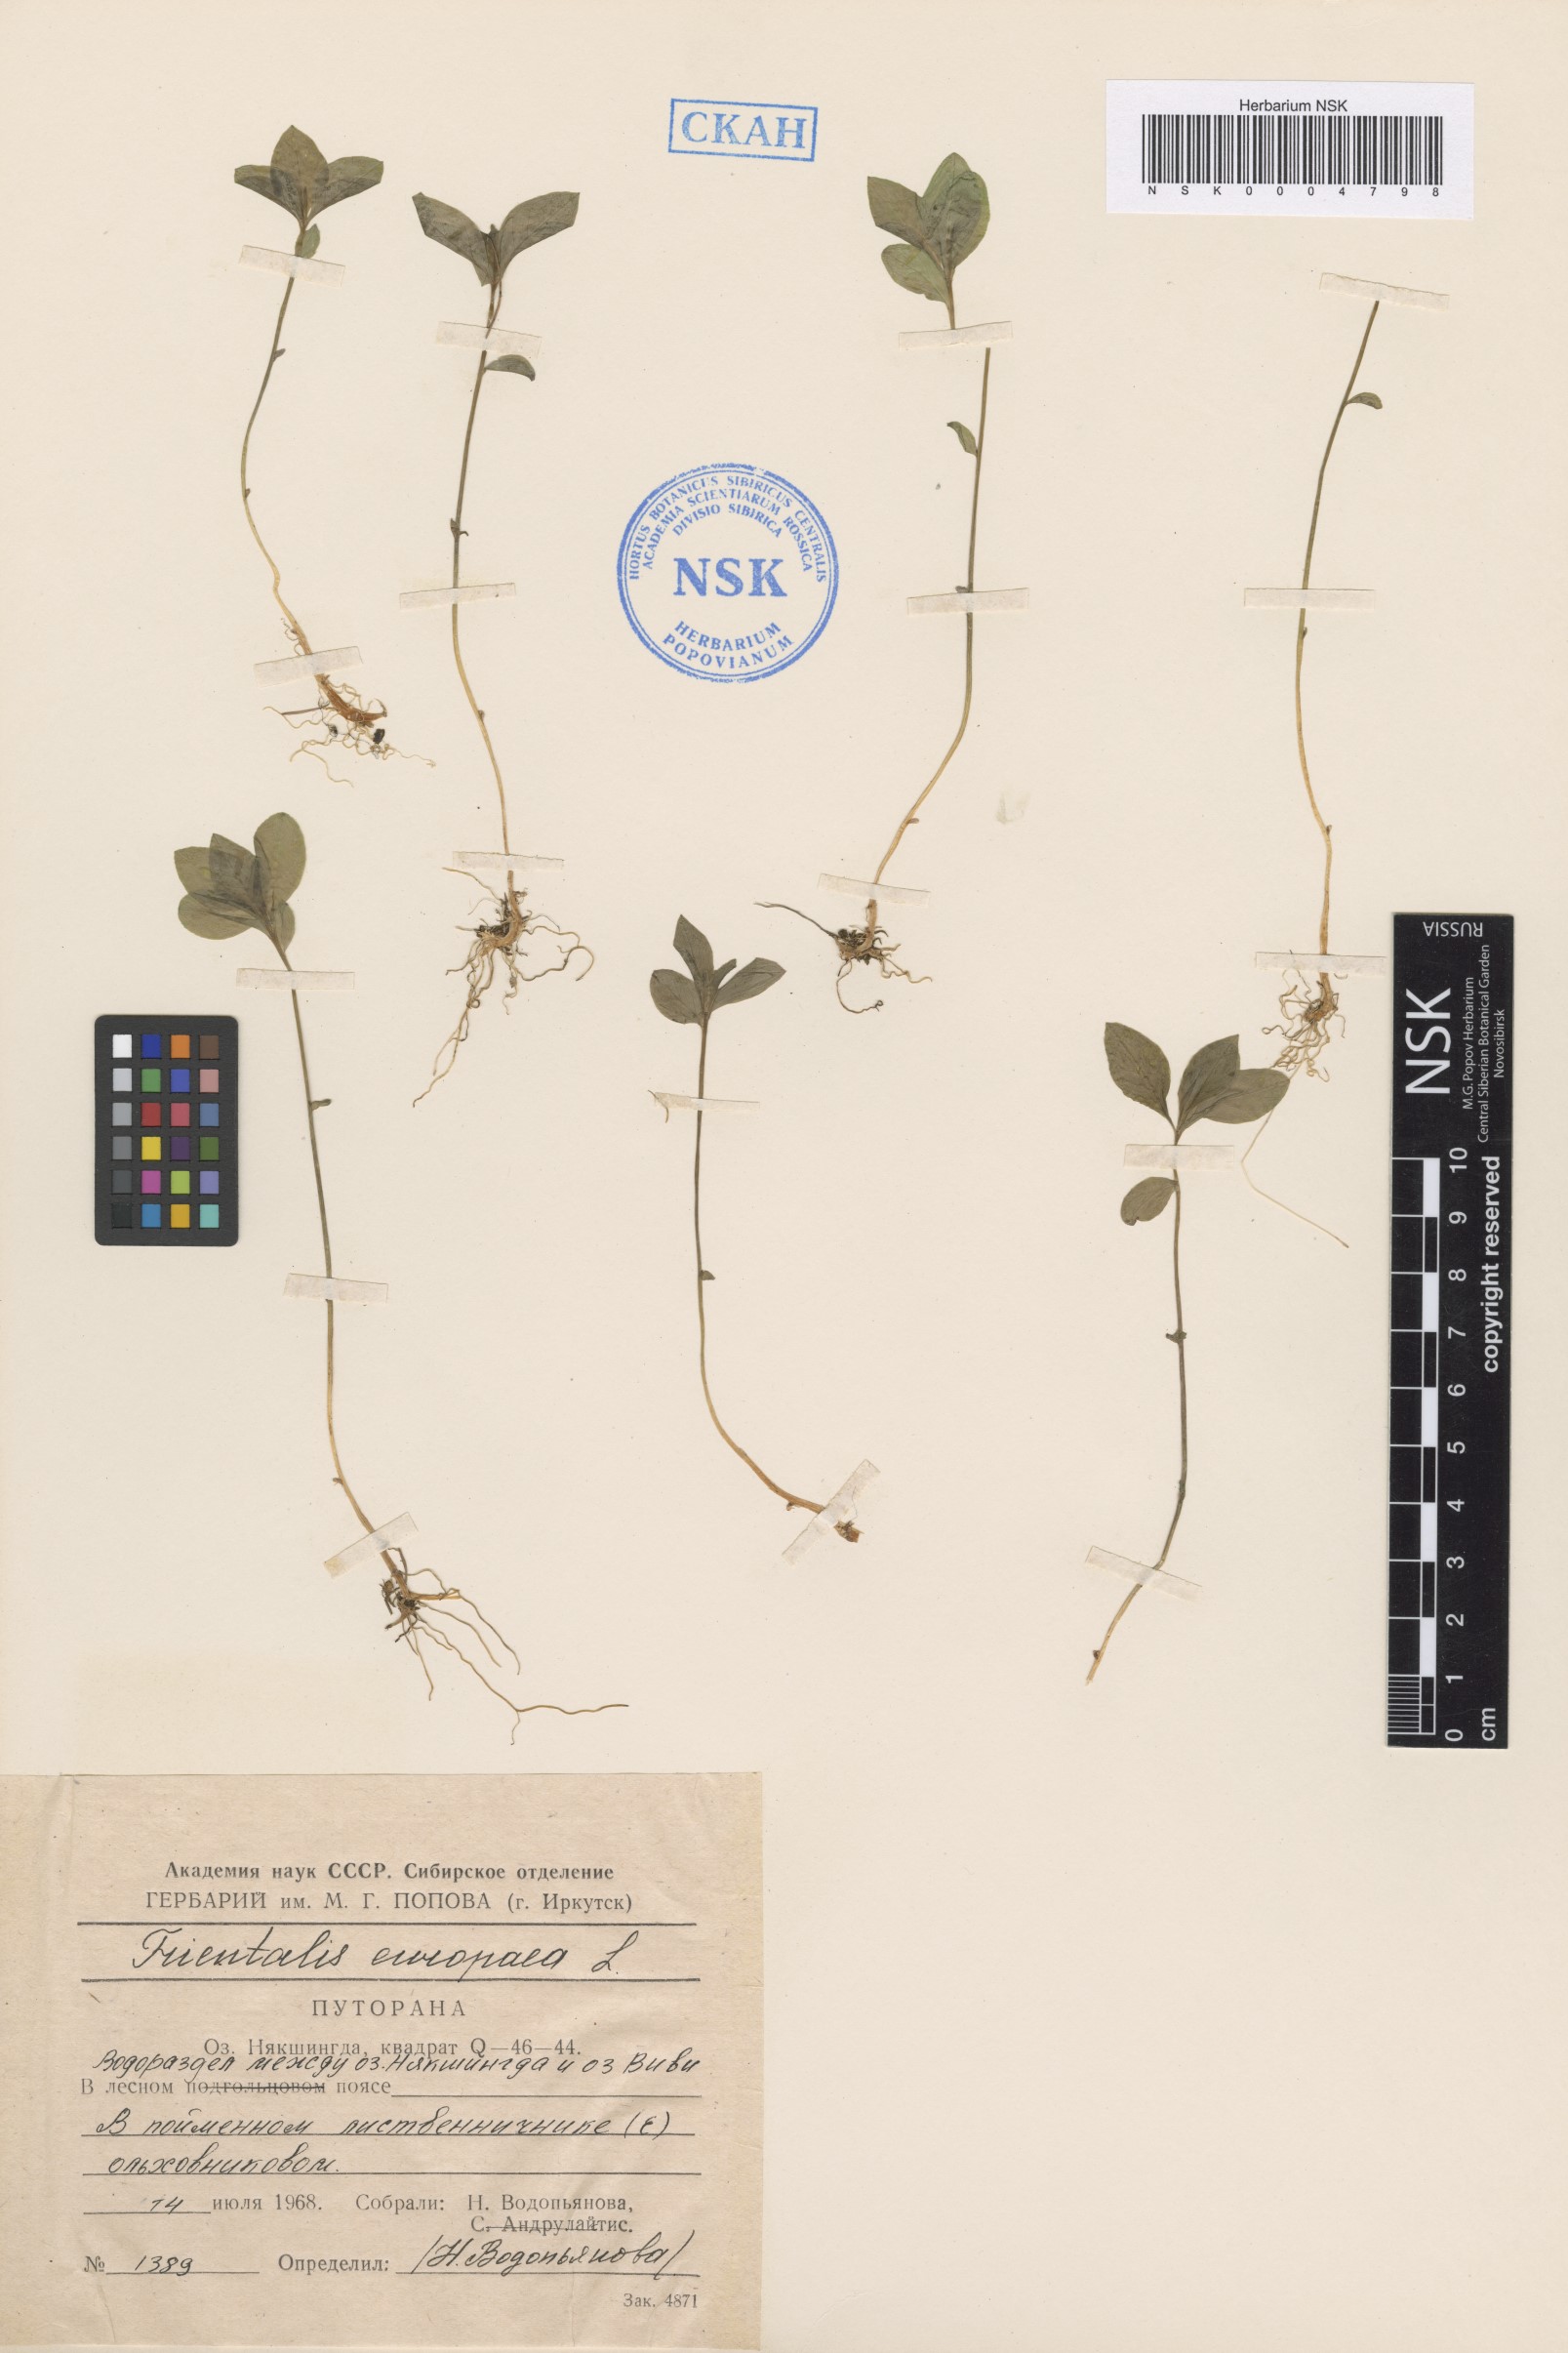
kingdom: Plantae
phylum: Tracheophyta
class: Magnoliopsida
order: Ericales
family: Primulaceae
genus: Lysimachia
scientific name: Lysimachia europaea
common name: Arctic starflower
